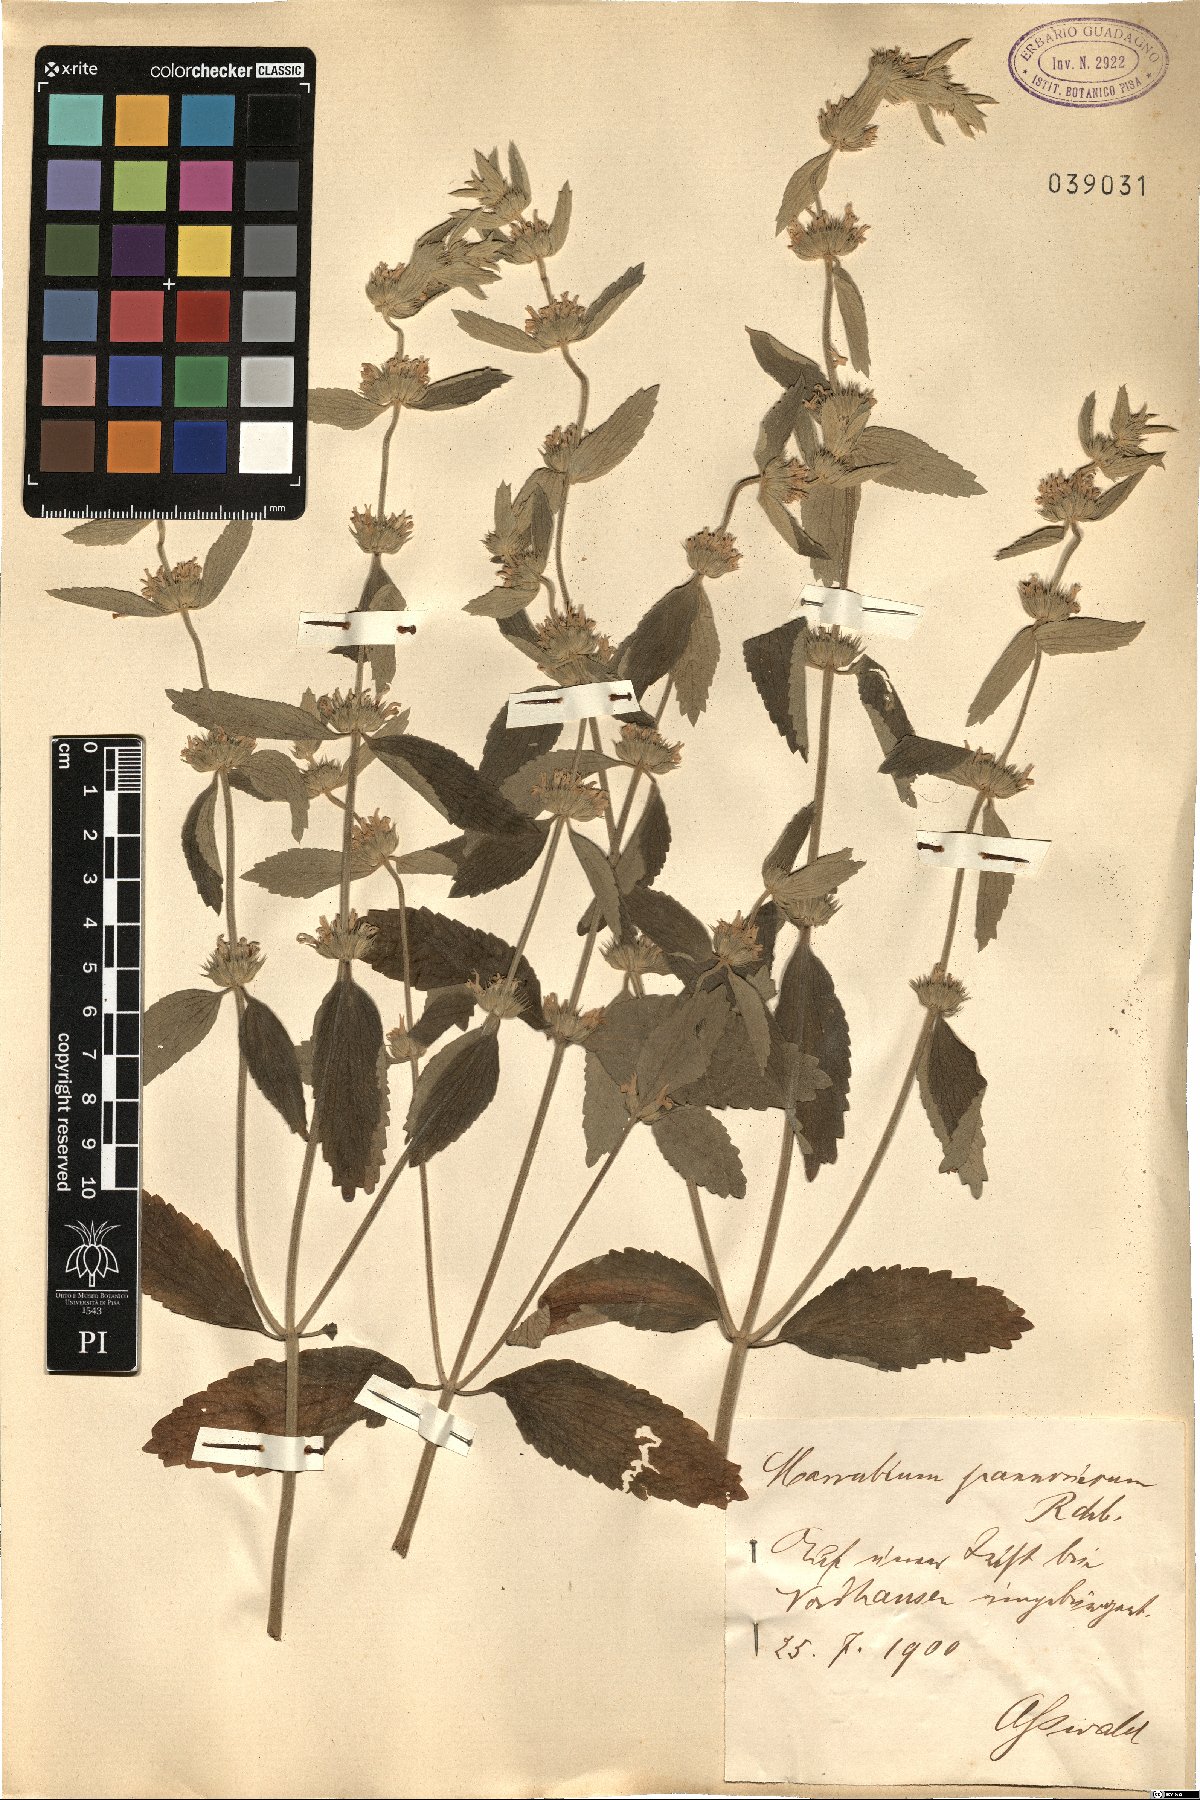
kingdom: Plantae
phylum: Tracheophyta
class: Magnoliopsida
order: Lamiales
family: Lamiaceae
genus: Marrubium
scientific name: Marrubium peregrinum
